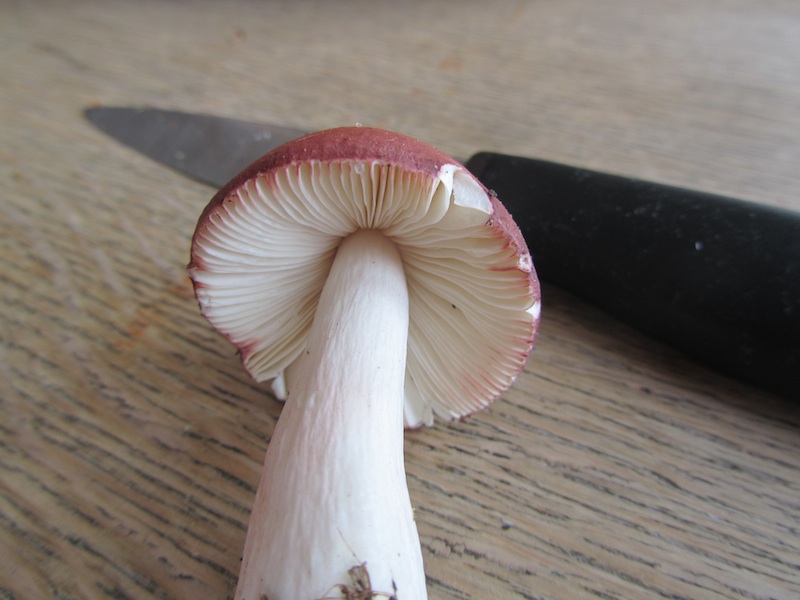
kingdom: Fungi
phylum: Basidiomycota
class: Agaricomycetes
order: Russulales
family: Russulaceae
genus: Russula
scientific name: Russula nitida
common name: året skørhat
